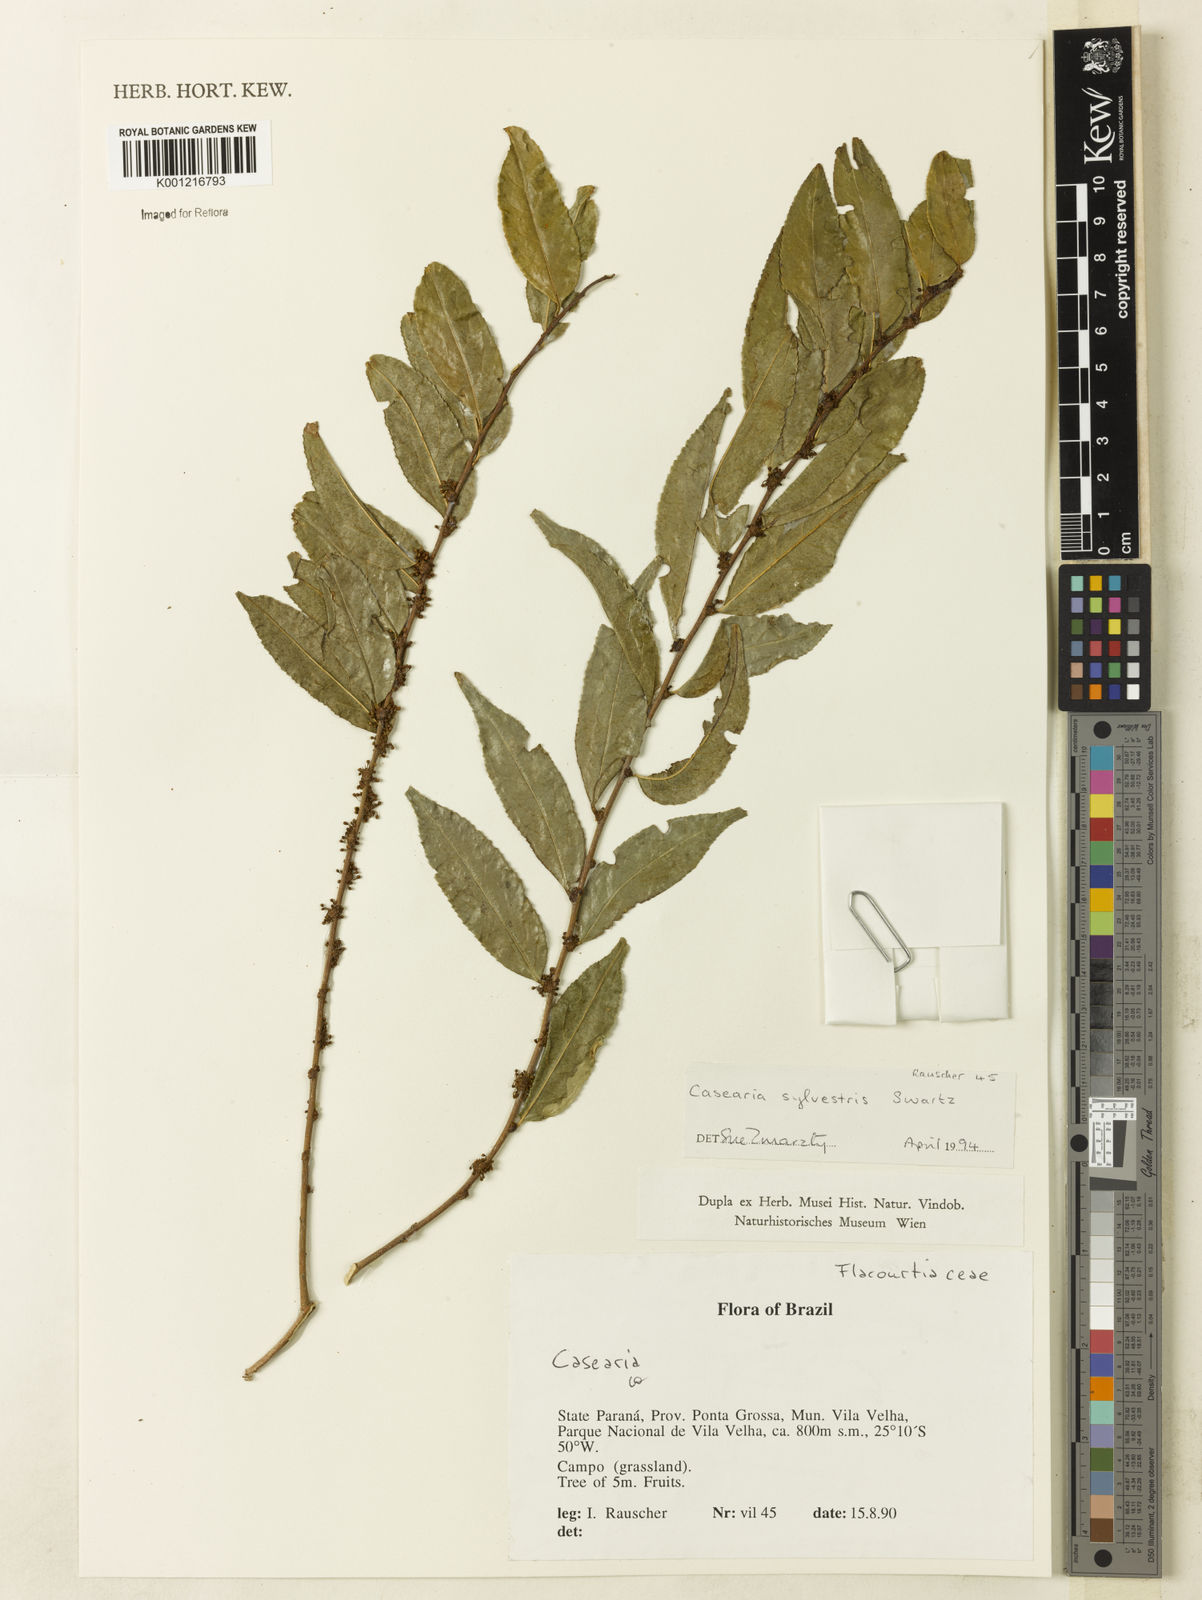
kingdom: Plantae
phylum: Tracheophyta
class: Magnoliopsida
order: Malpighiales
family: Salicaceae
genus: Casearia
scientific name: Casearia sylvestris
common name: Wild sage
